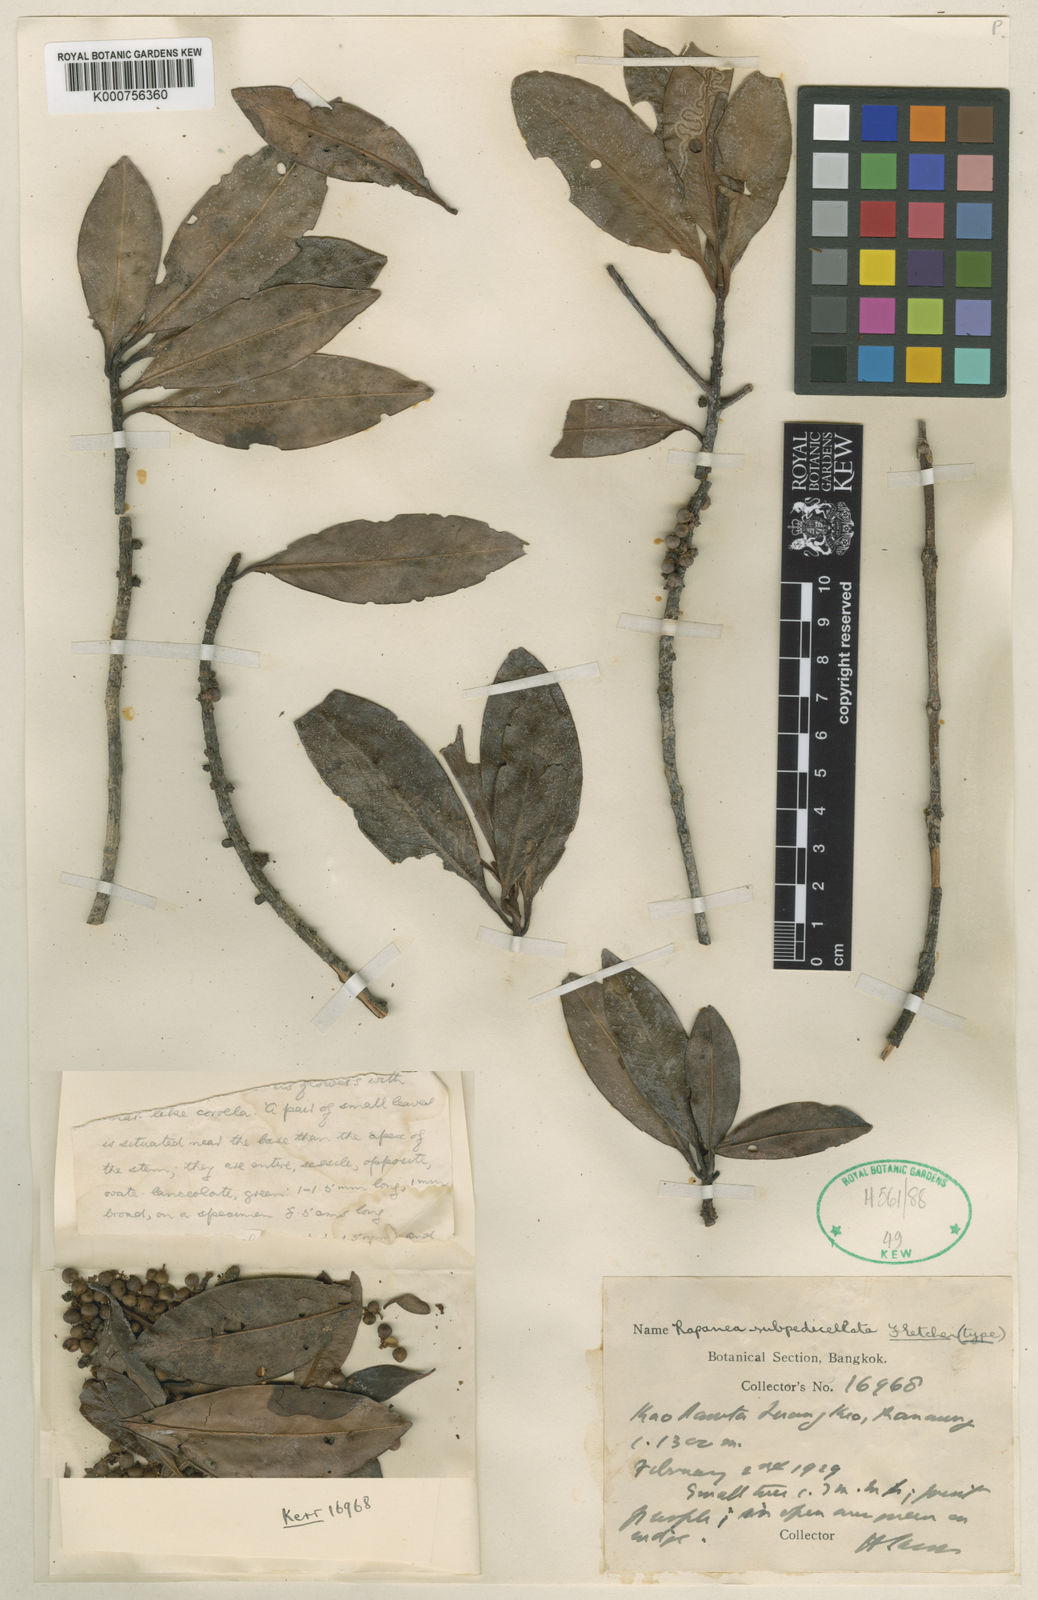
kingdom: Plantae
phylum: Tracheophyta
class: Magnoliopsida
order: Ericales
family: Primulaceae
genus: Myrsine
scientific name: Myrsine
